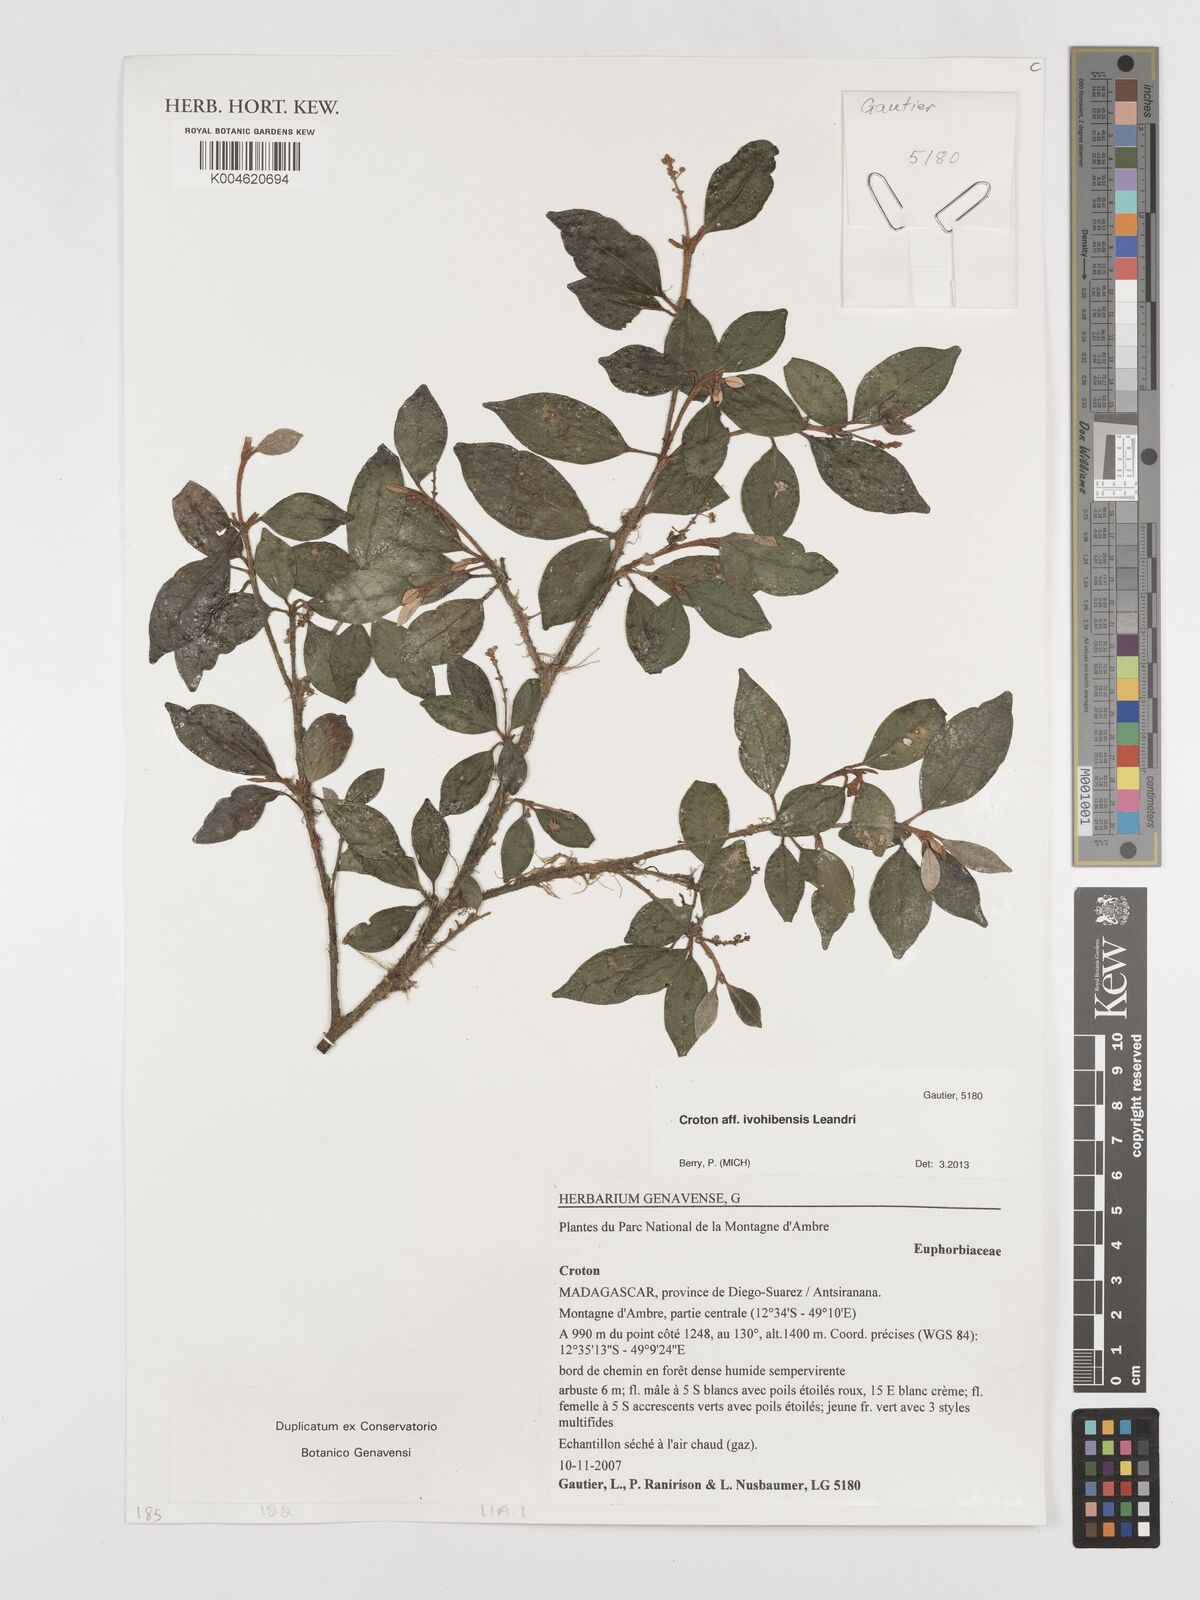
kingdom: Plantae
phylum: Tracheophyta
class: Magnoliopsida
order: Malpighiales
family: Euphorbiaceae
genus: Croton
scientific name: Croton
